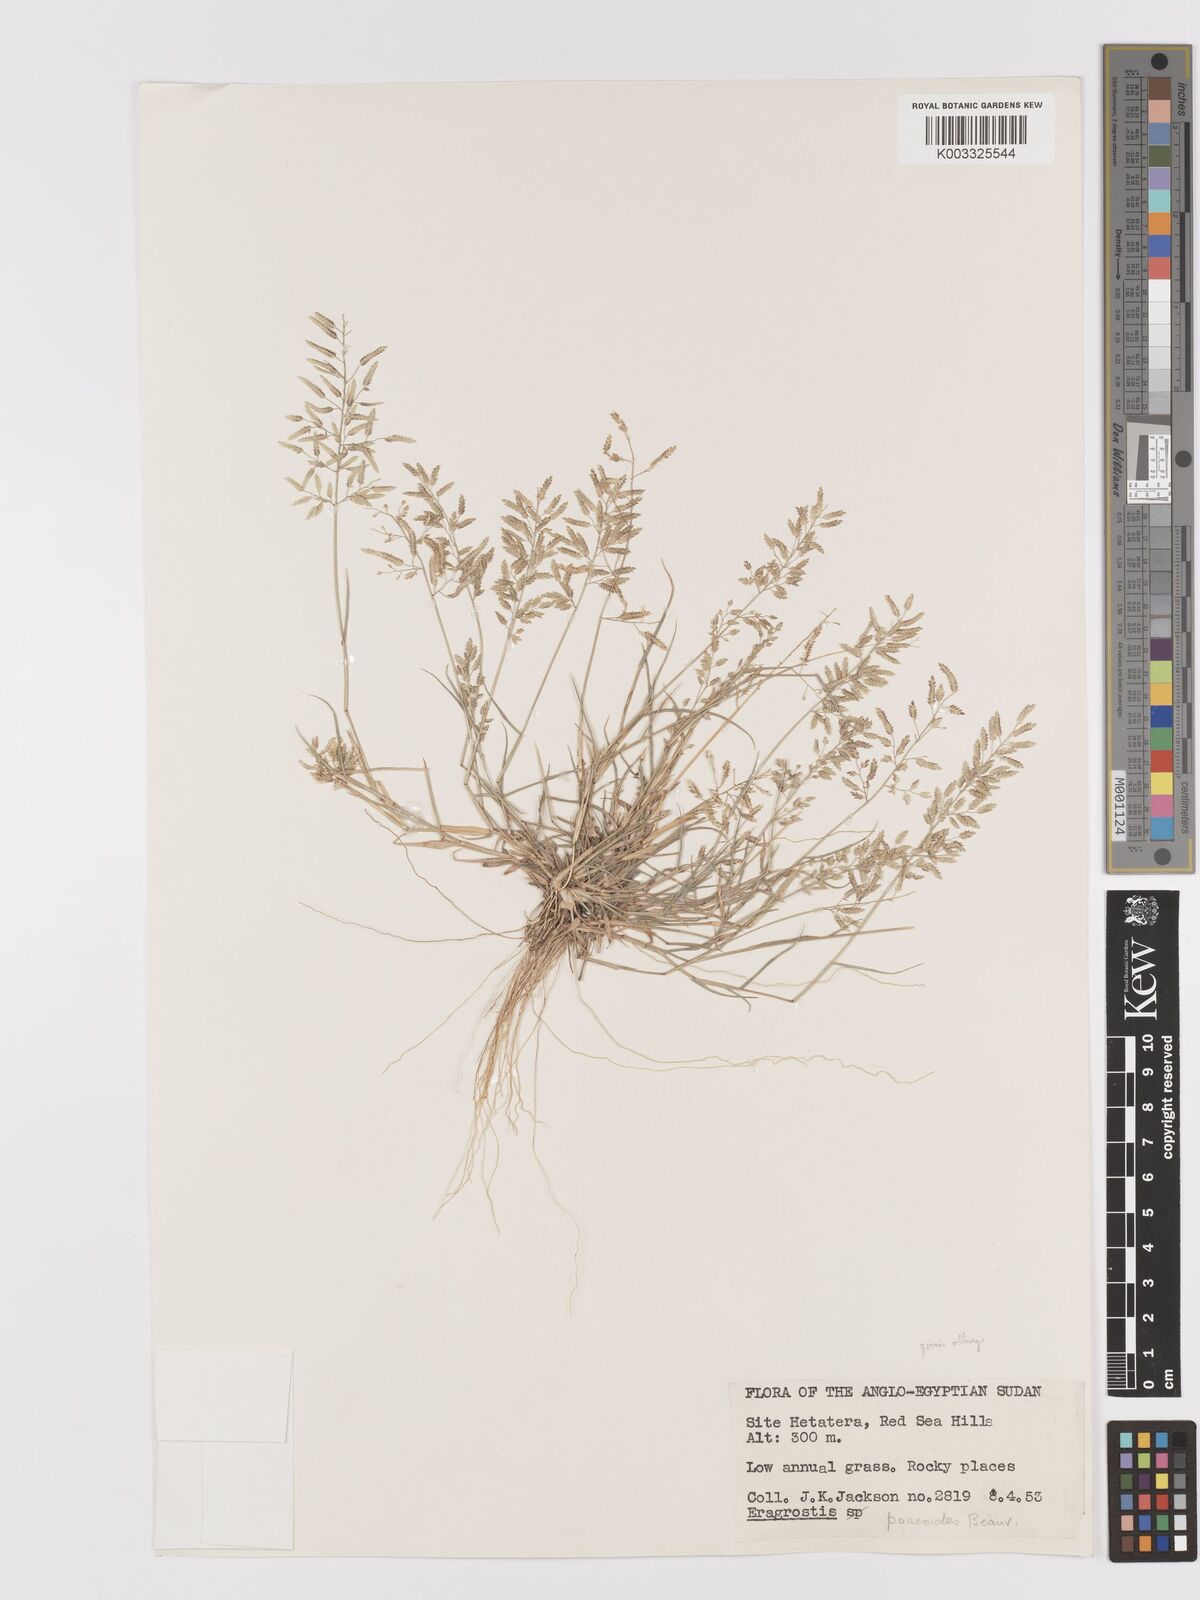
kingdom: Plantae
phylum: Tracheophyta
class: Liliopsida
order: Poales
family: Poaceae
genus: Eragrostis
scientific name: Eragrostis minor
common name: Small love-grass
